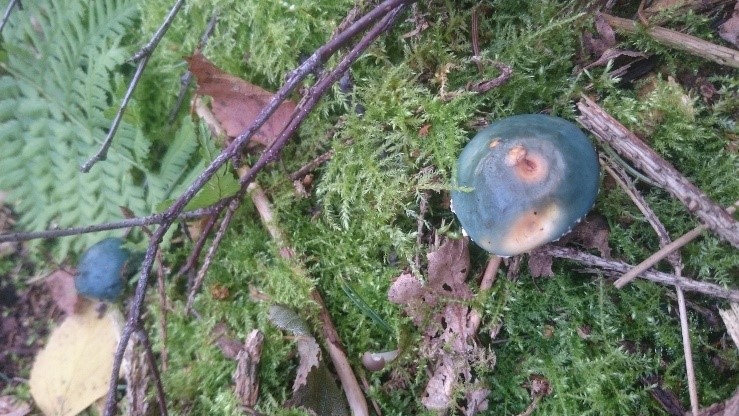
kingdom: Fungi
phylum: Basidiomycota
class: Agaricomycetes
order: Agaricales
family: Strophariaceae
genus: Stropharia
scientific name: Stropharia aeruginosa
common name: spanskgrøn bredblad
